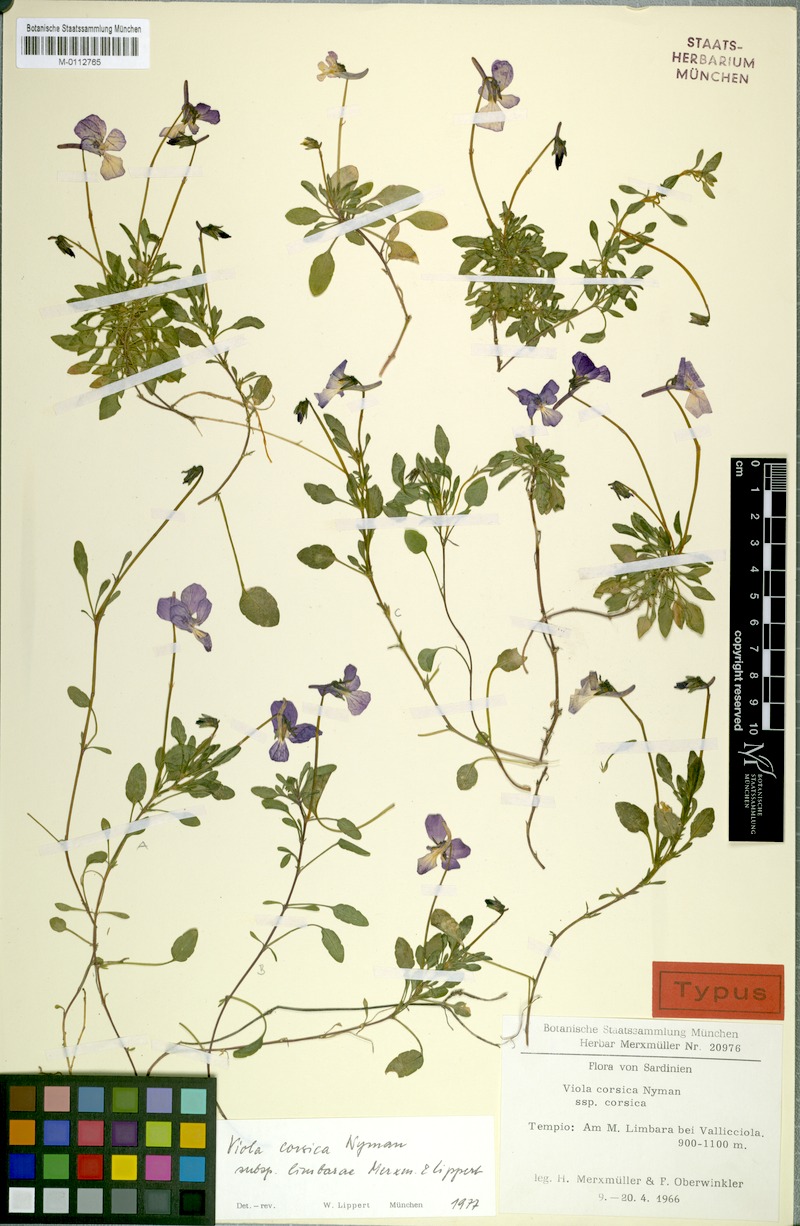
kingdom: Plantae
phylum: Tracheophyta
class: Magnoliopsida
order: Malpighiales
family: Violaceae
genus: Viola
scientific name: Viola corsica
